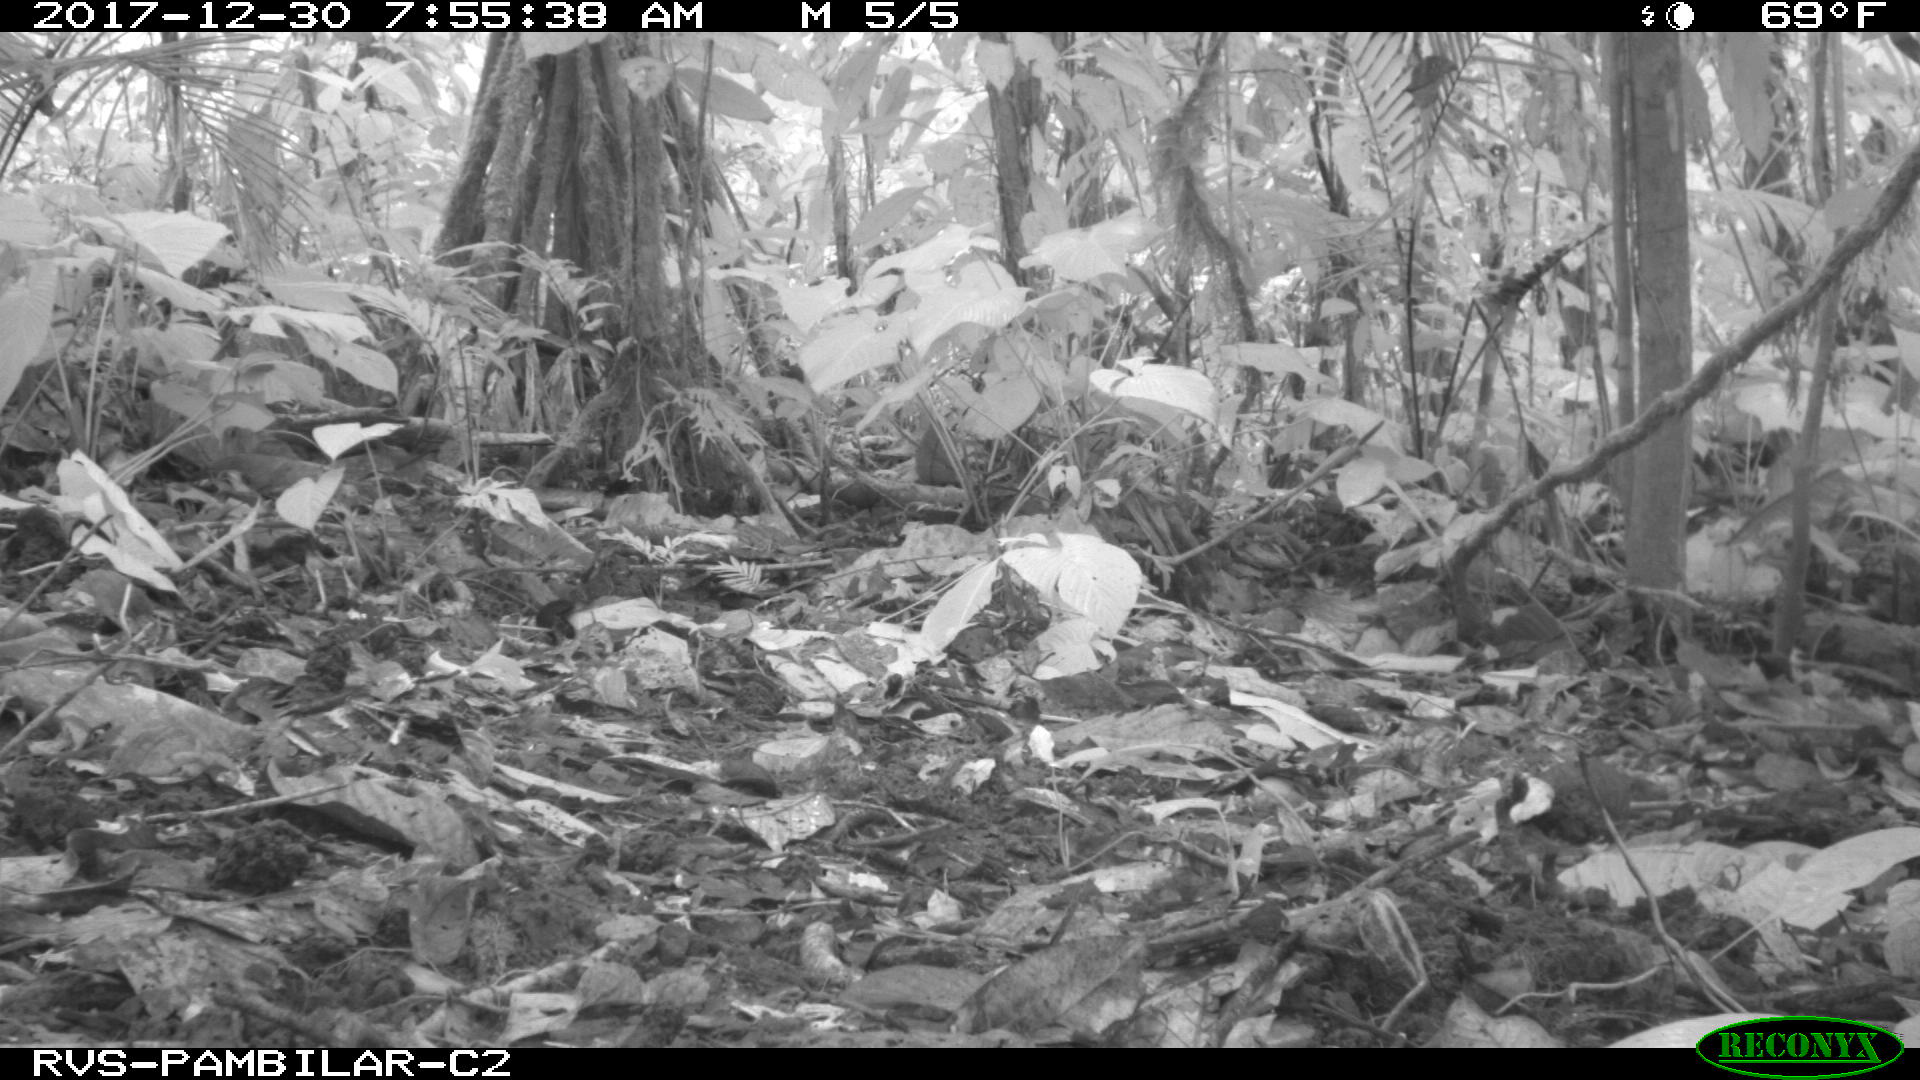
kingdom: Animalia
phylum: Chordata
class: Mammalia
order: Rodentia
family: Sciuridae
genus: Sciurus
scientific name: Sciurus granatensis
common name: Red-tailed squirrel
